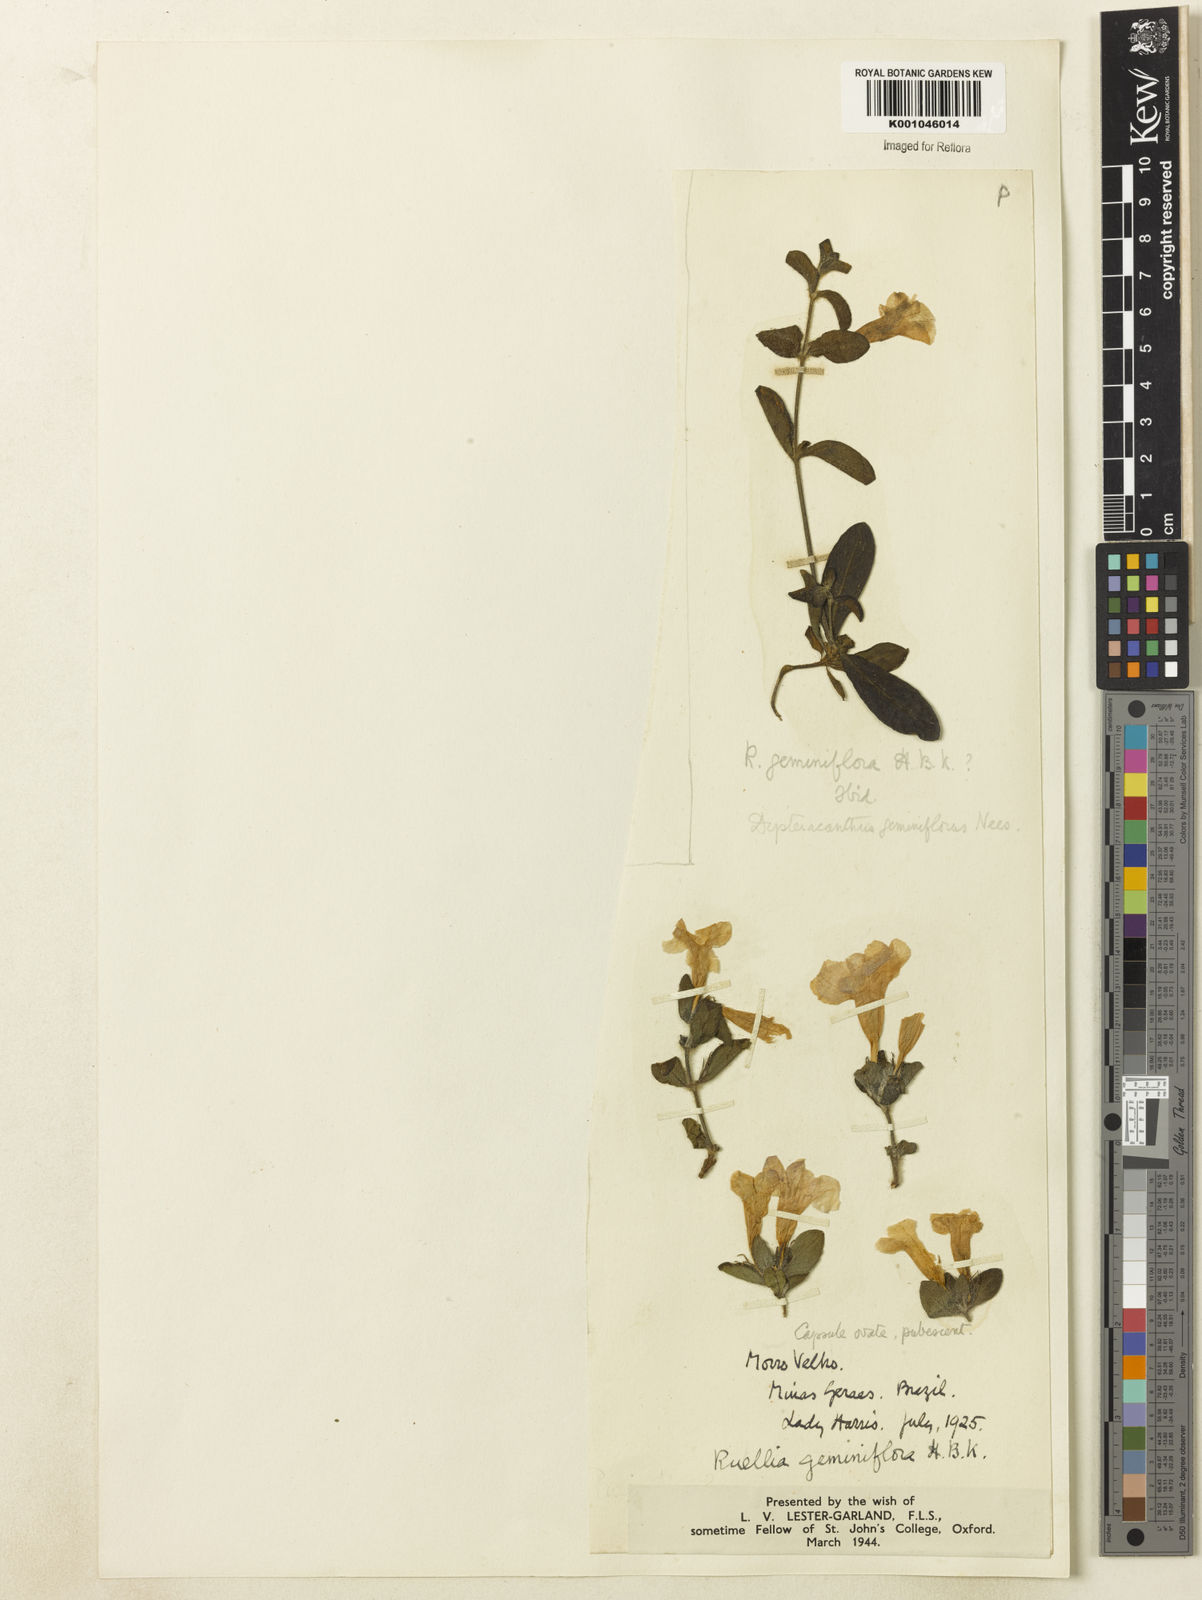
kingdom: Plantae
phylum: Tracheophyta
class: Magnoliopsida
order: Lamiales
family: Acanthaceae
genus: Ruellia
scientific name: Ruellia geminiflora
